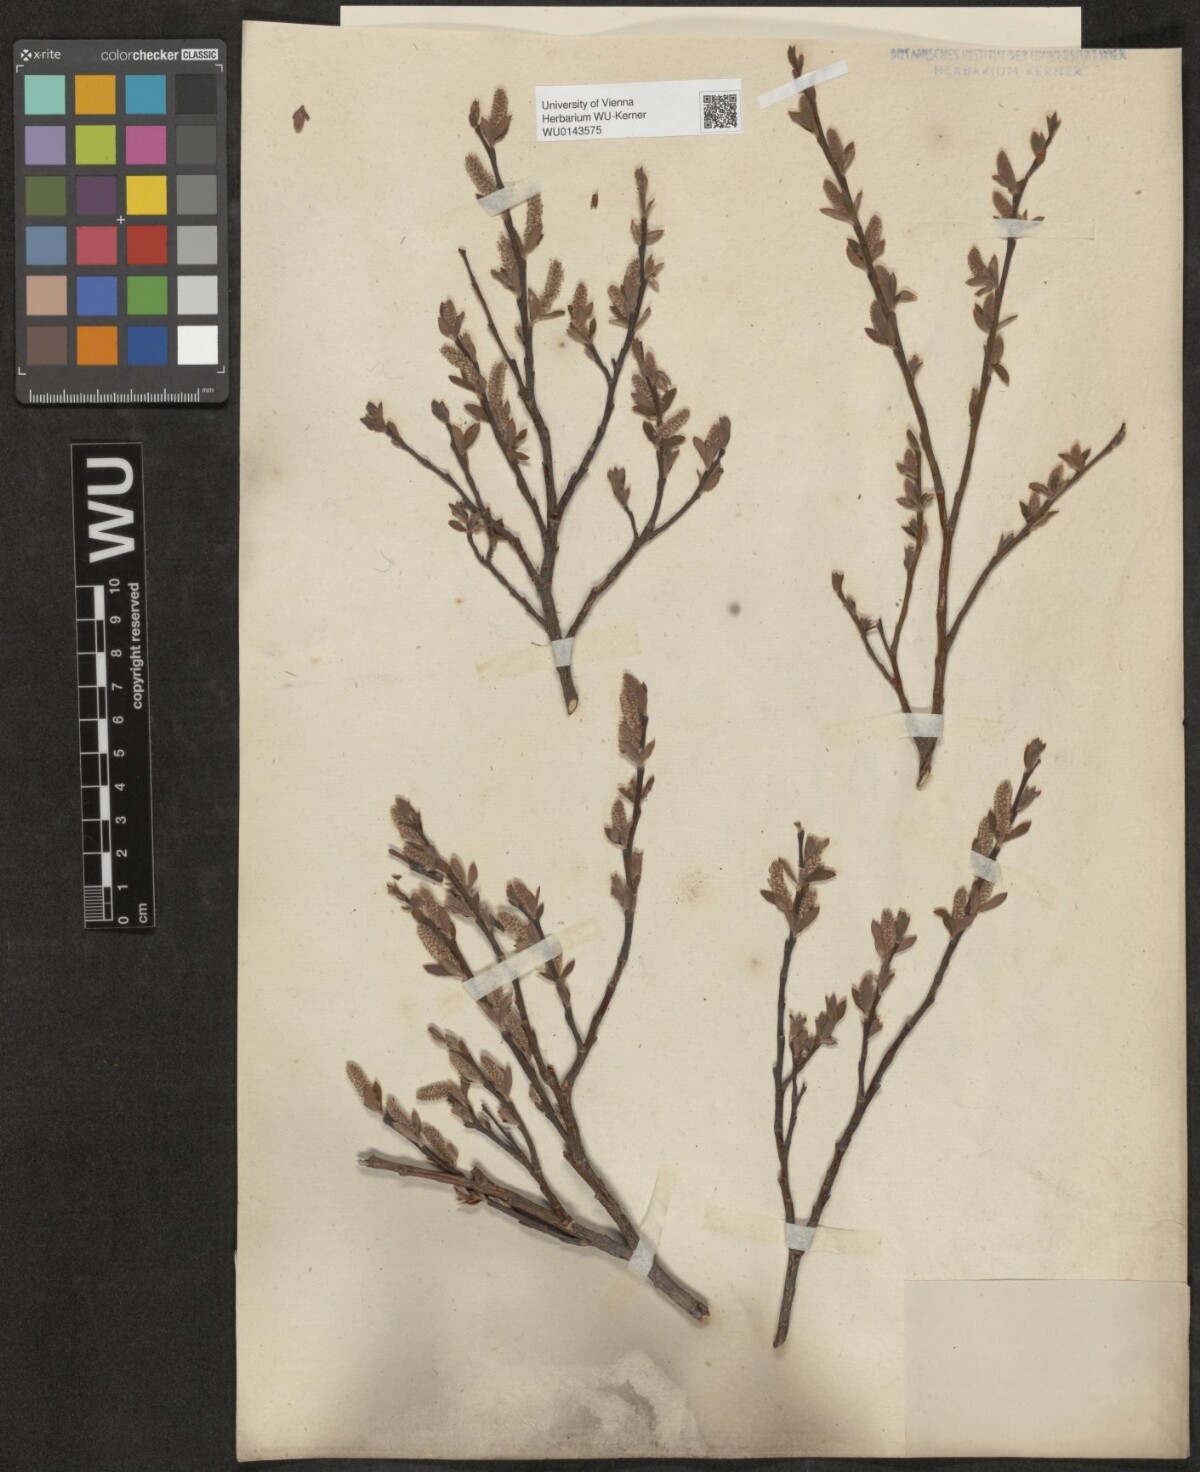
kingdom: Plantae
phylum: Tracheophyta
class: Magnoliopsida
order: Malpighiales
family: Salicaceae
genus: Salix
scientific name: Salix waldsteiniana
